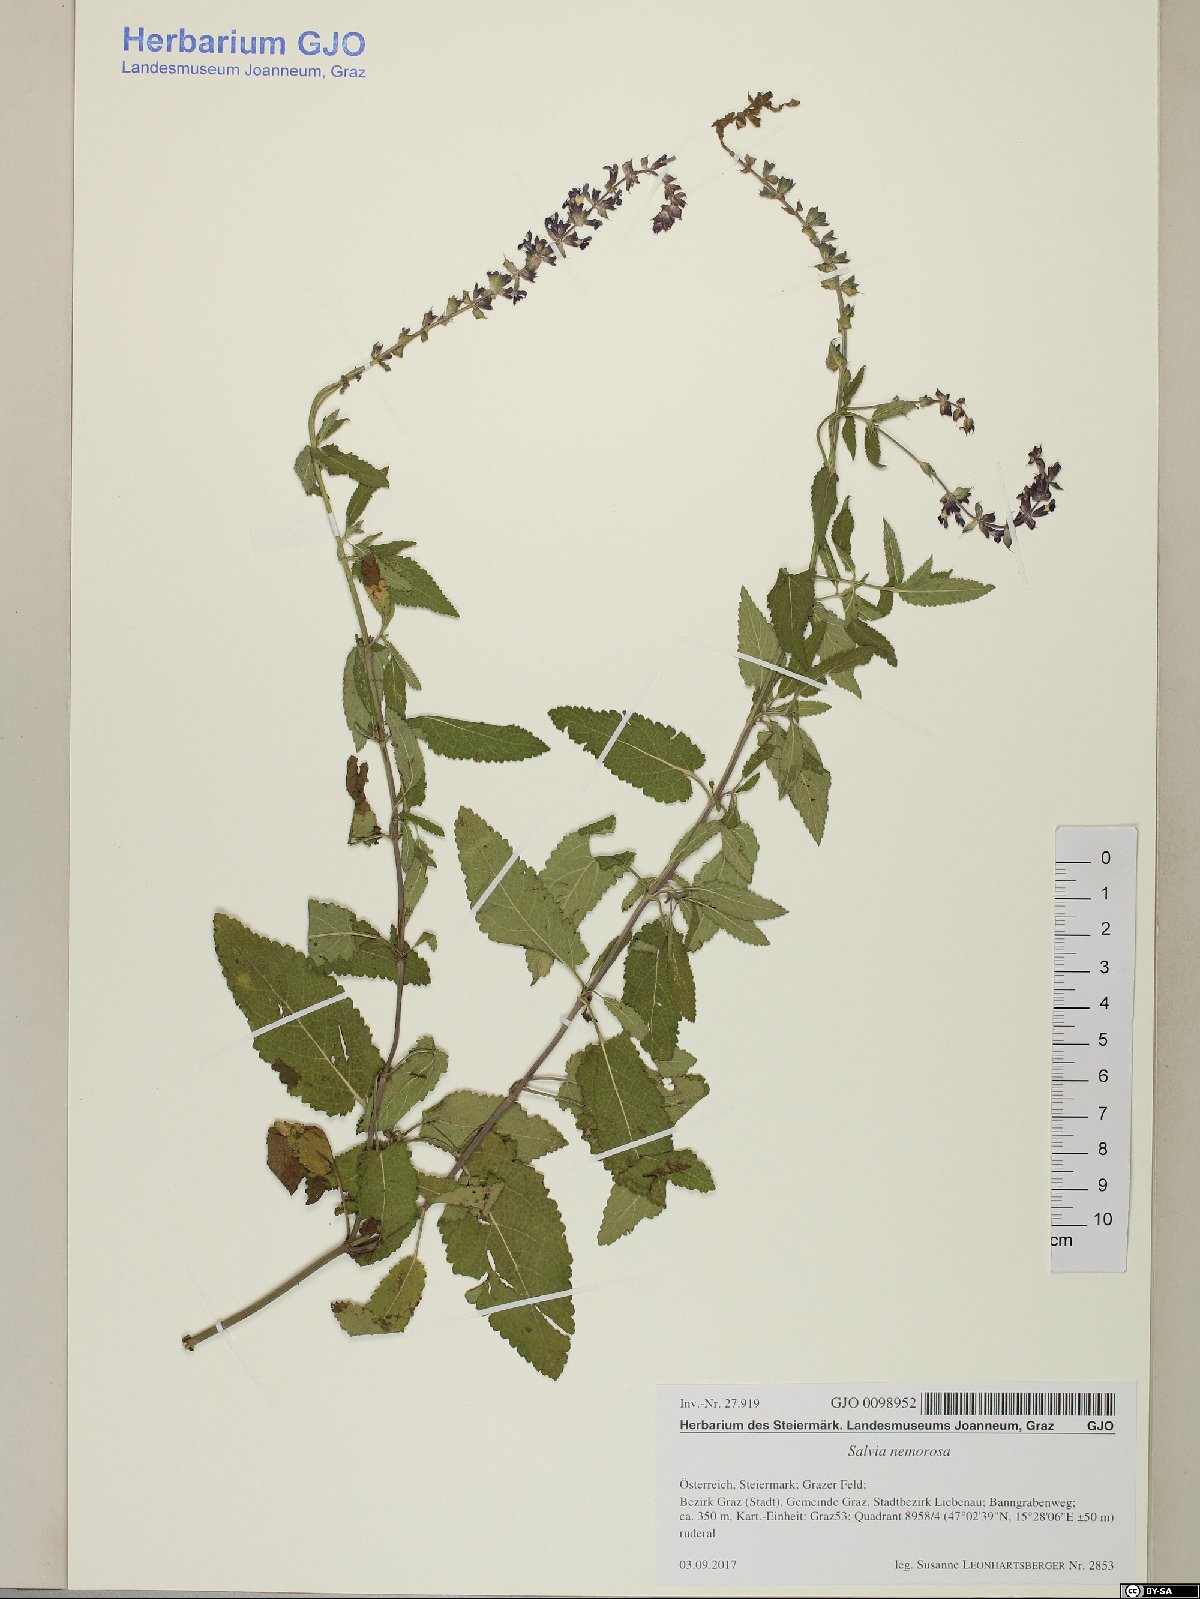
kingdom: Plantae
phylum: Tracheophyta
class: Magnoliopsida
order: Lamiales
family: Lamiaceae
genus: Salvia
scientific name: Salvia nemorosa
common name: Balkan clary
